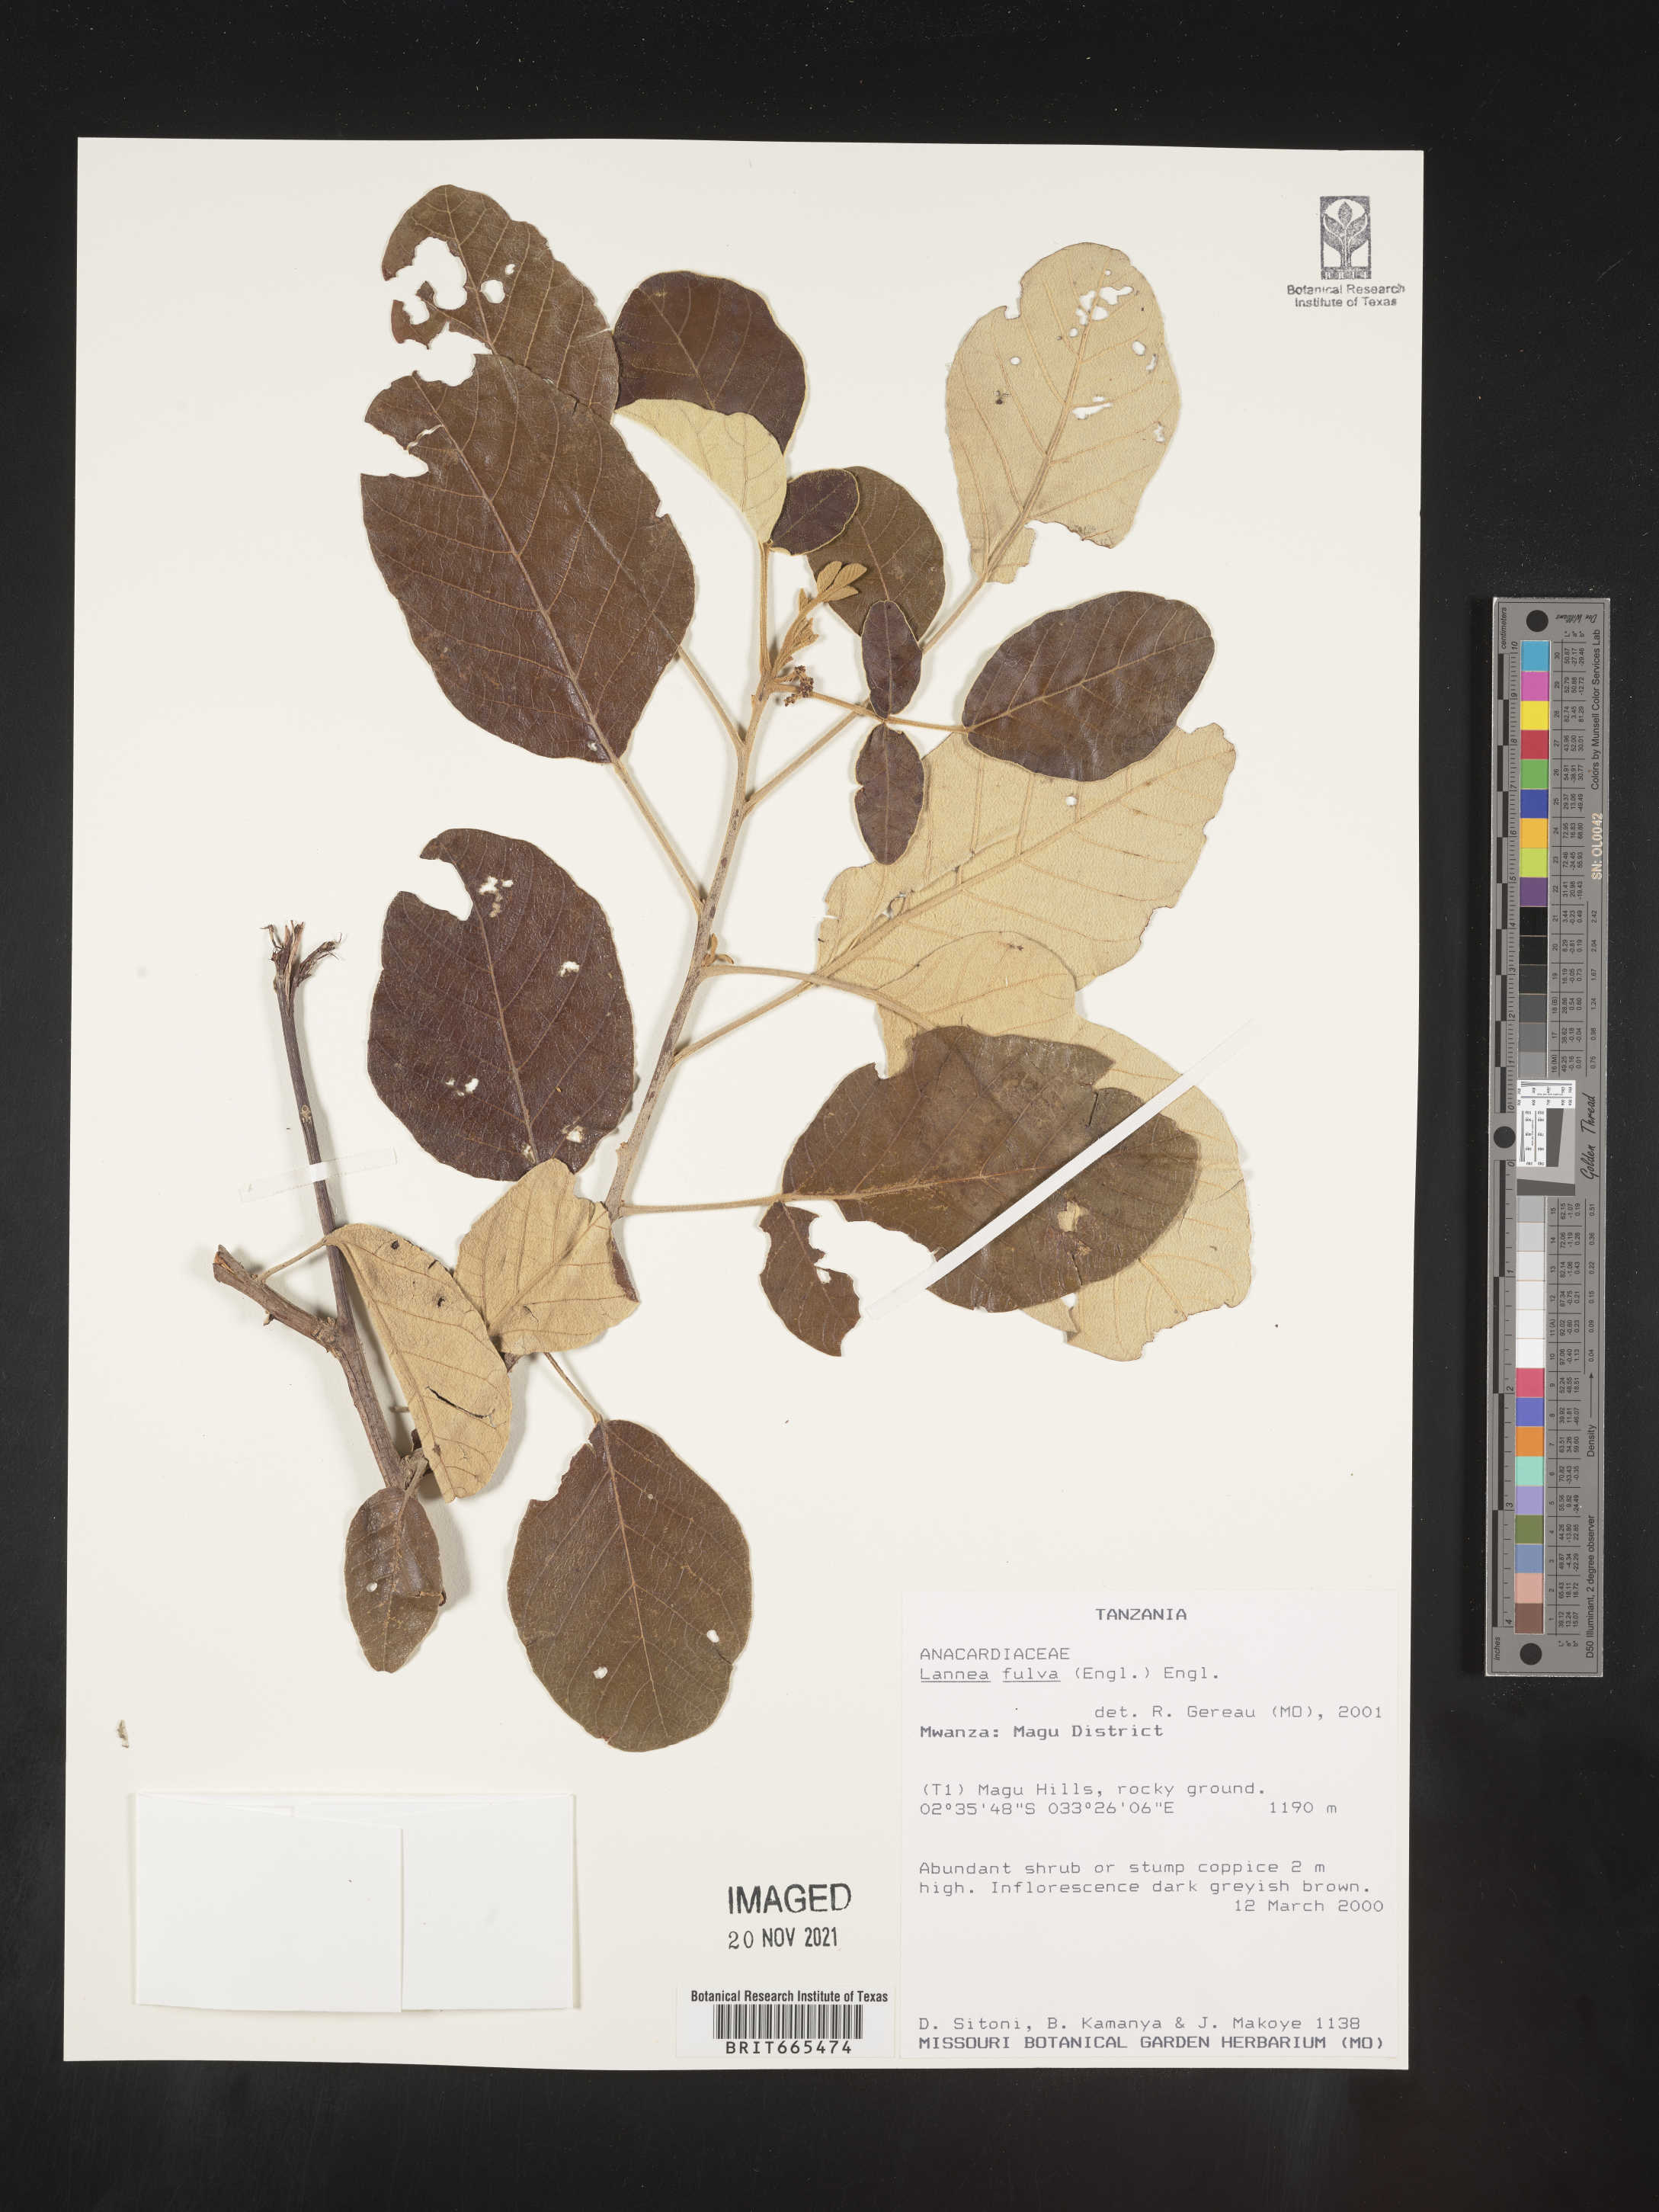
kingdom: Plantae
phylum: Tracheophyta
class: Magnoliopsida
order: Sapindales
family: Anacardiaceae
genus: Lannea
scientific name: Lannea
